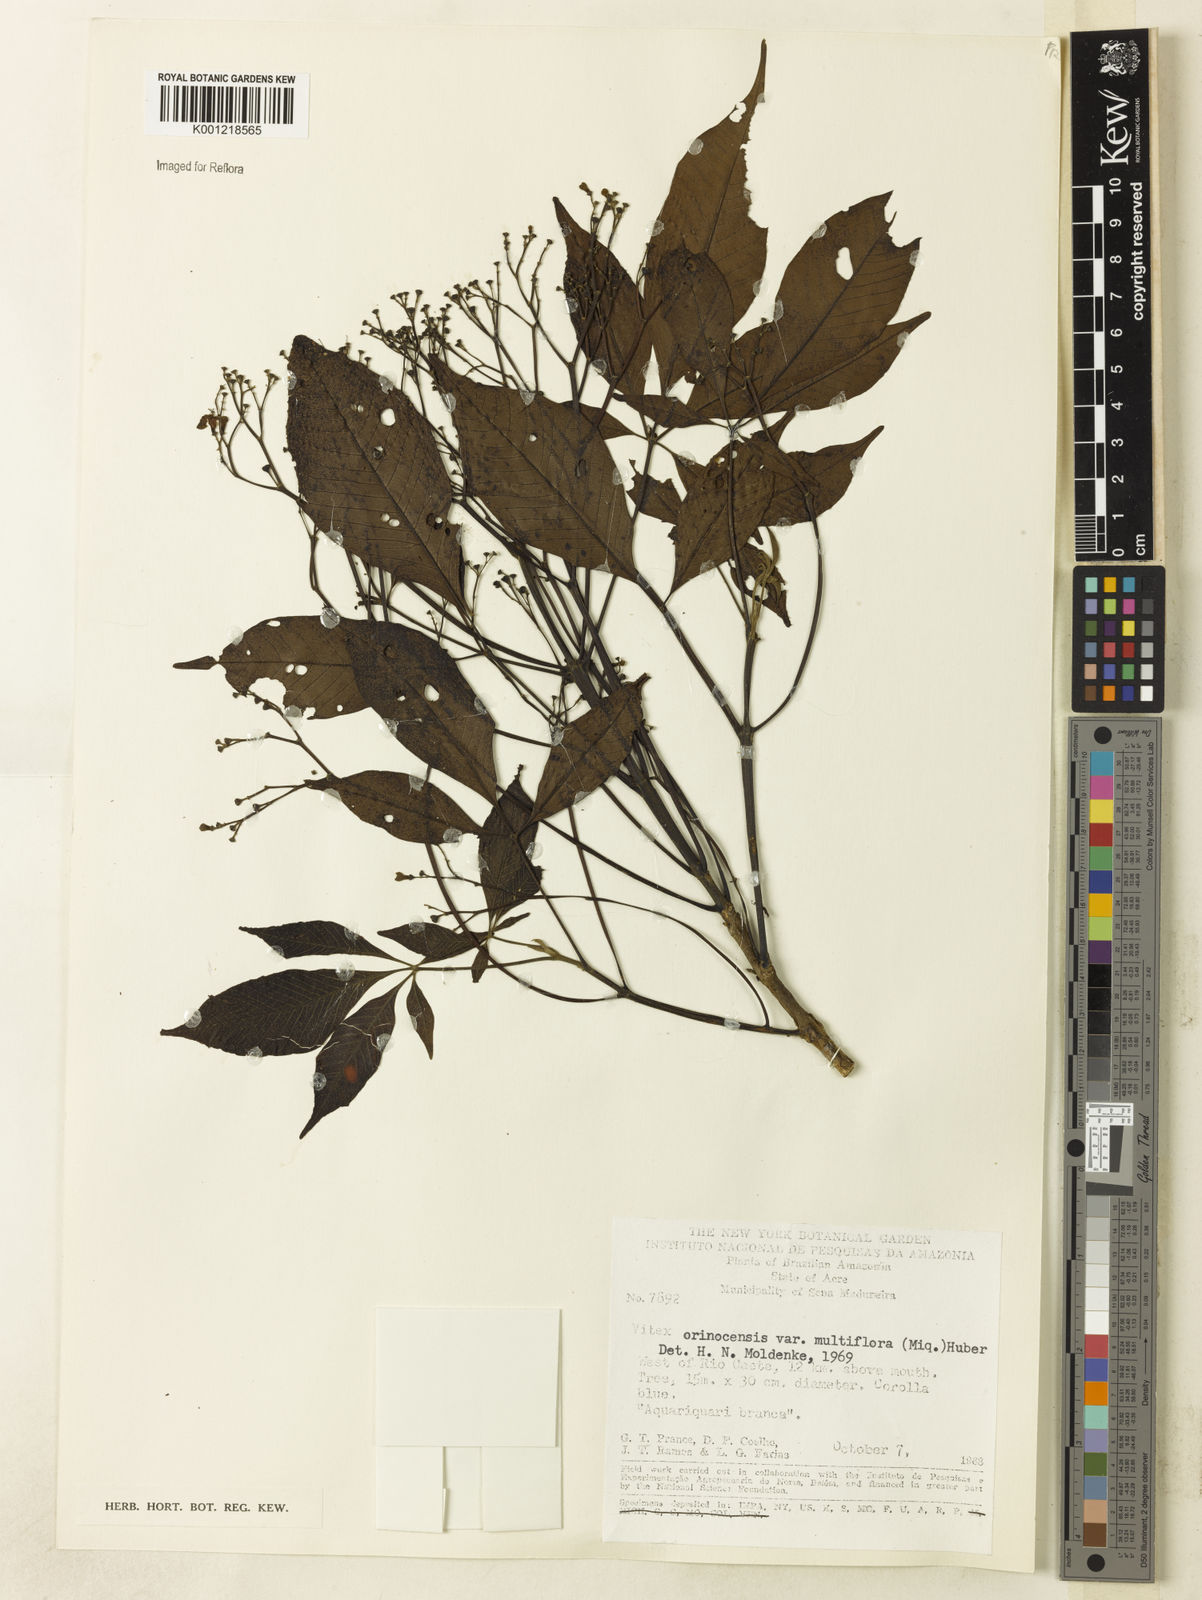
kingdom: Plantae
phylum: Tracheophyta
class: Magnoliopsida
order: Lamiales
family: Lamiaceae
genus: Vitex
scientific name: Vitex orinocensis
